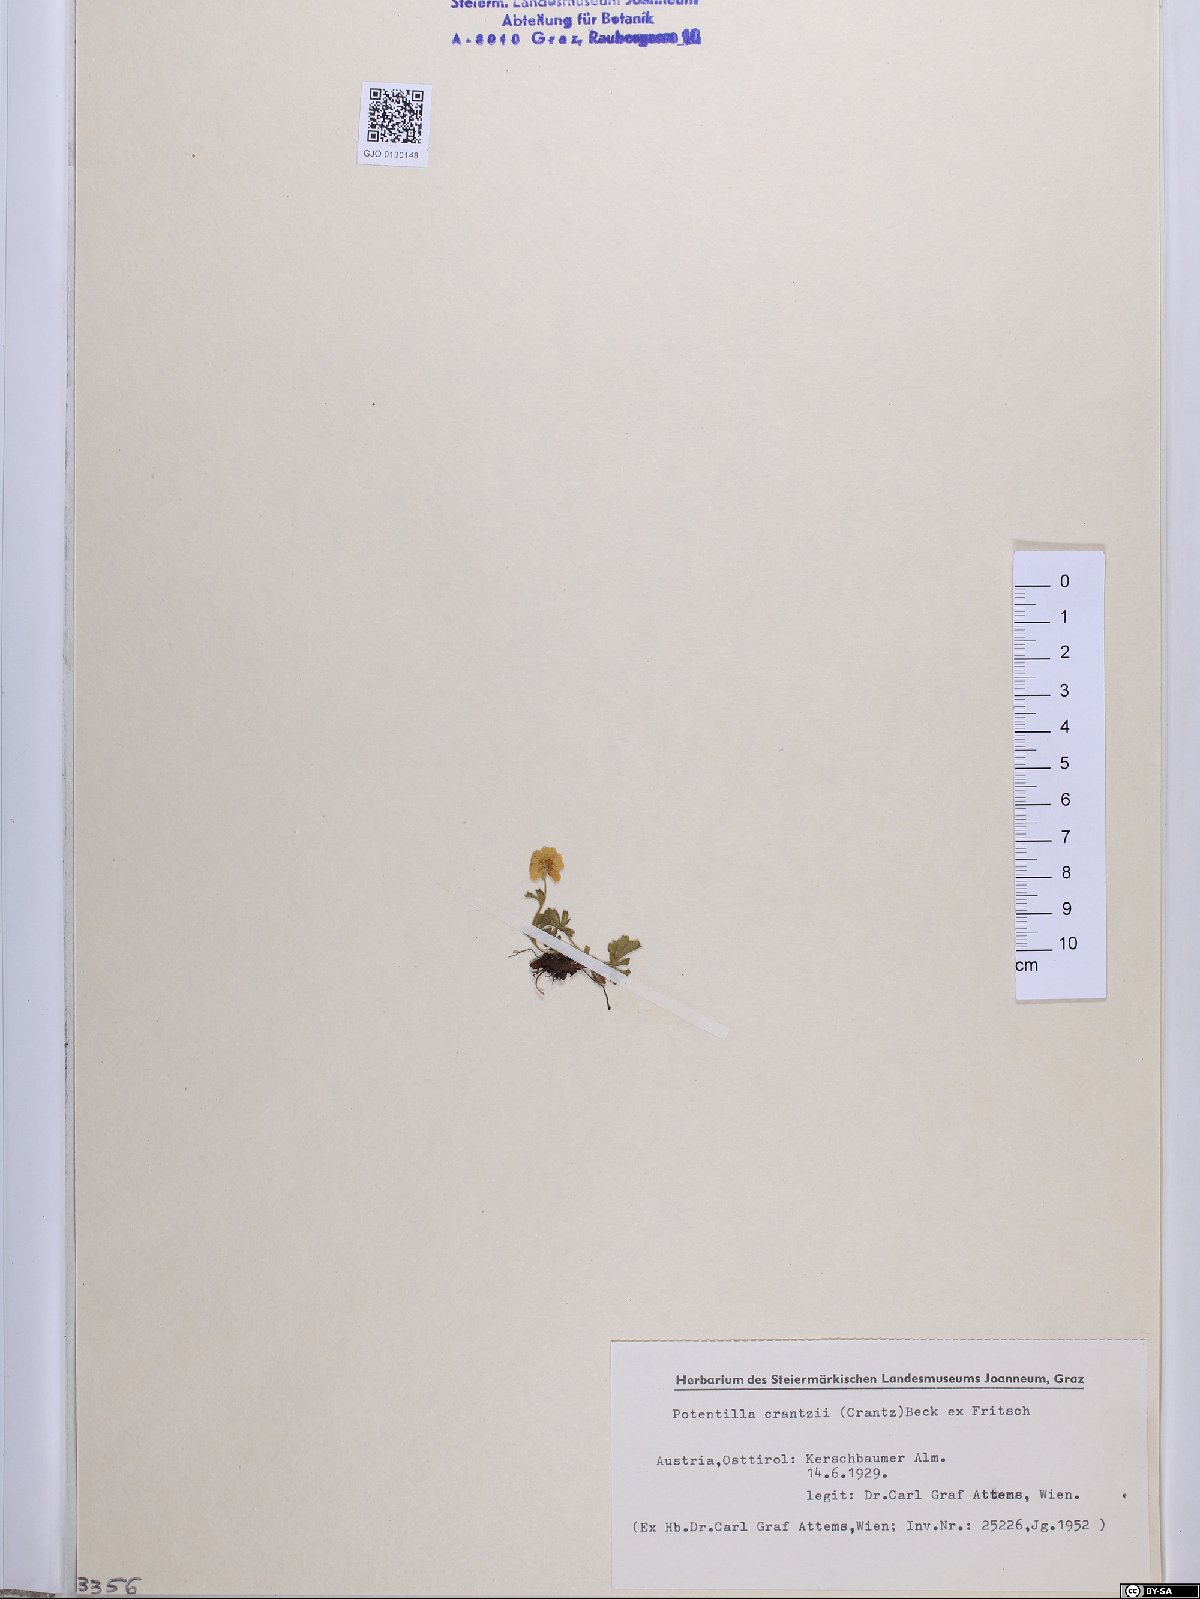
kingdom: Plantae
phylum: Tracheophyta
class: Magnoliopsida
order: Rosales
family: Rosaceae
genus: Potentilla
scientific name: Potentilla crantzii
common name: Alpine cinquefoil
